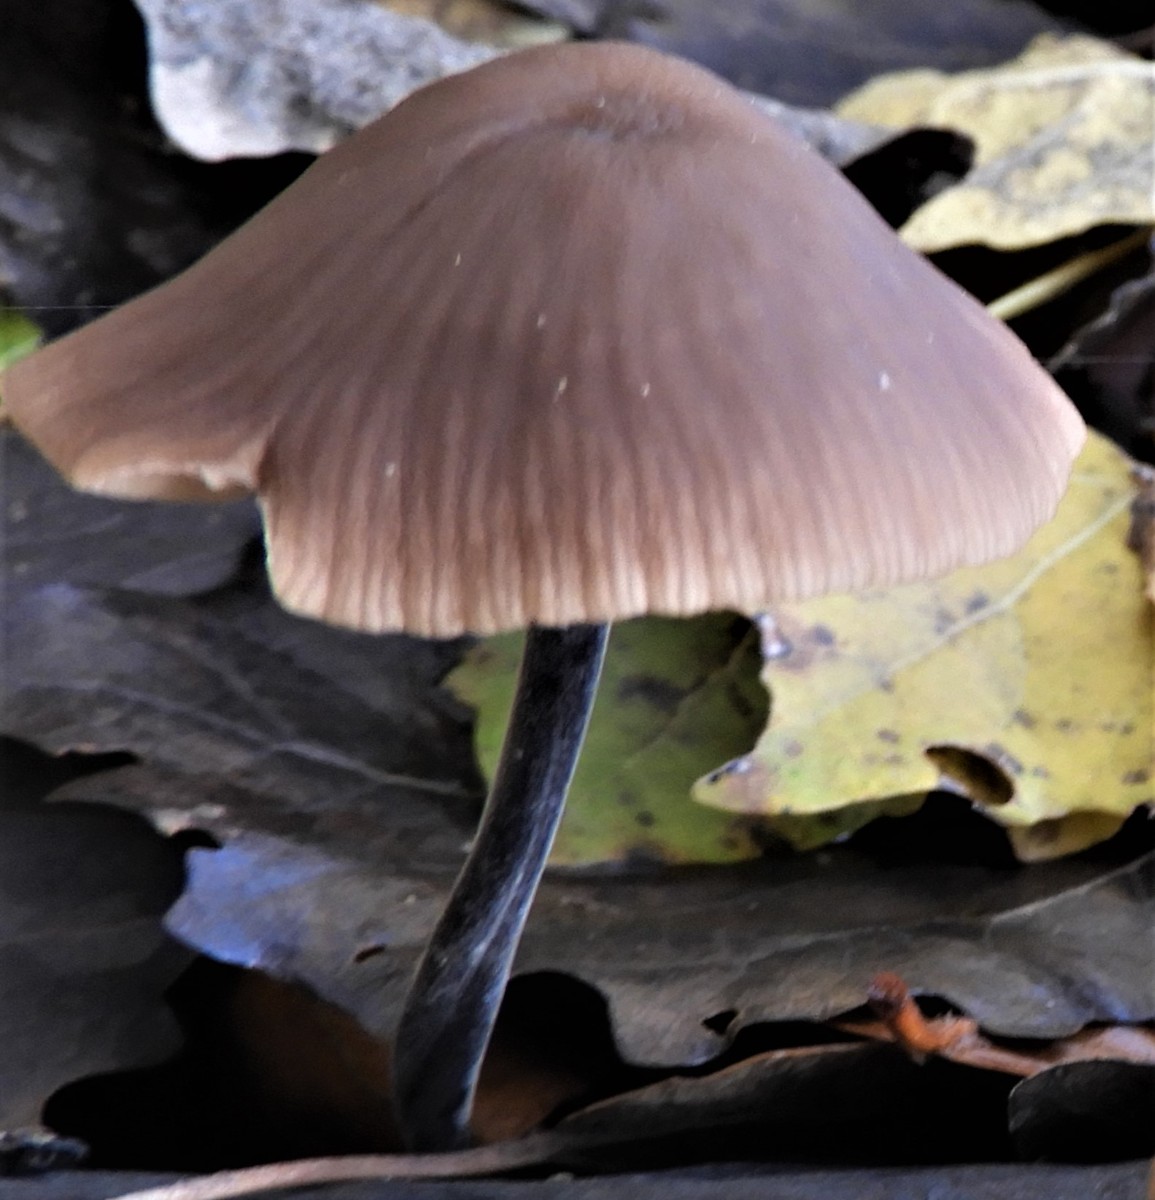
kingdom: Fungi
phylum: Basidiomycota
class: Agaricomycetes
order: Agaricales
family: Omphalotaceae
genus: Mycetinis
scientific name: Mycetinis alliaceus
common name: stor løghat
